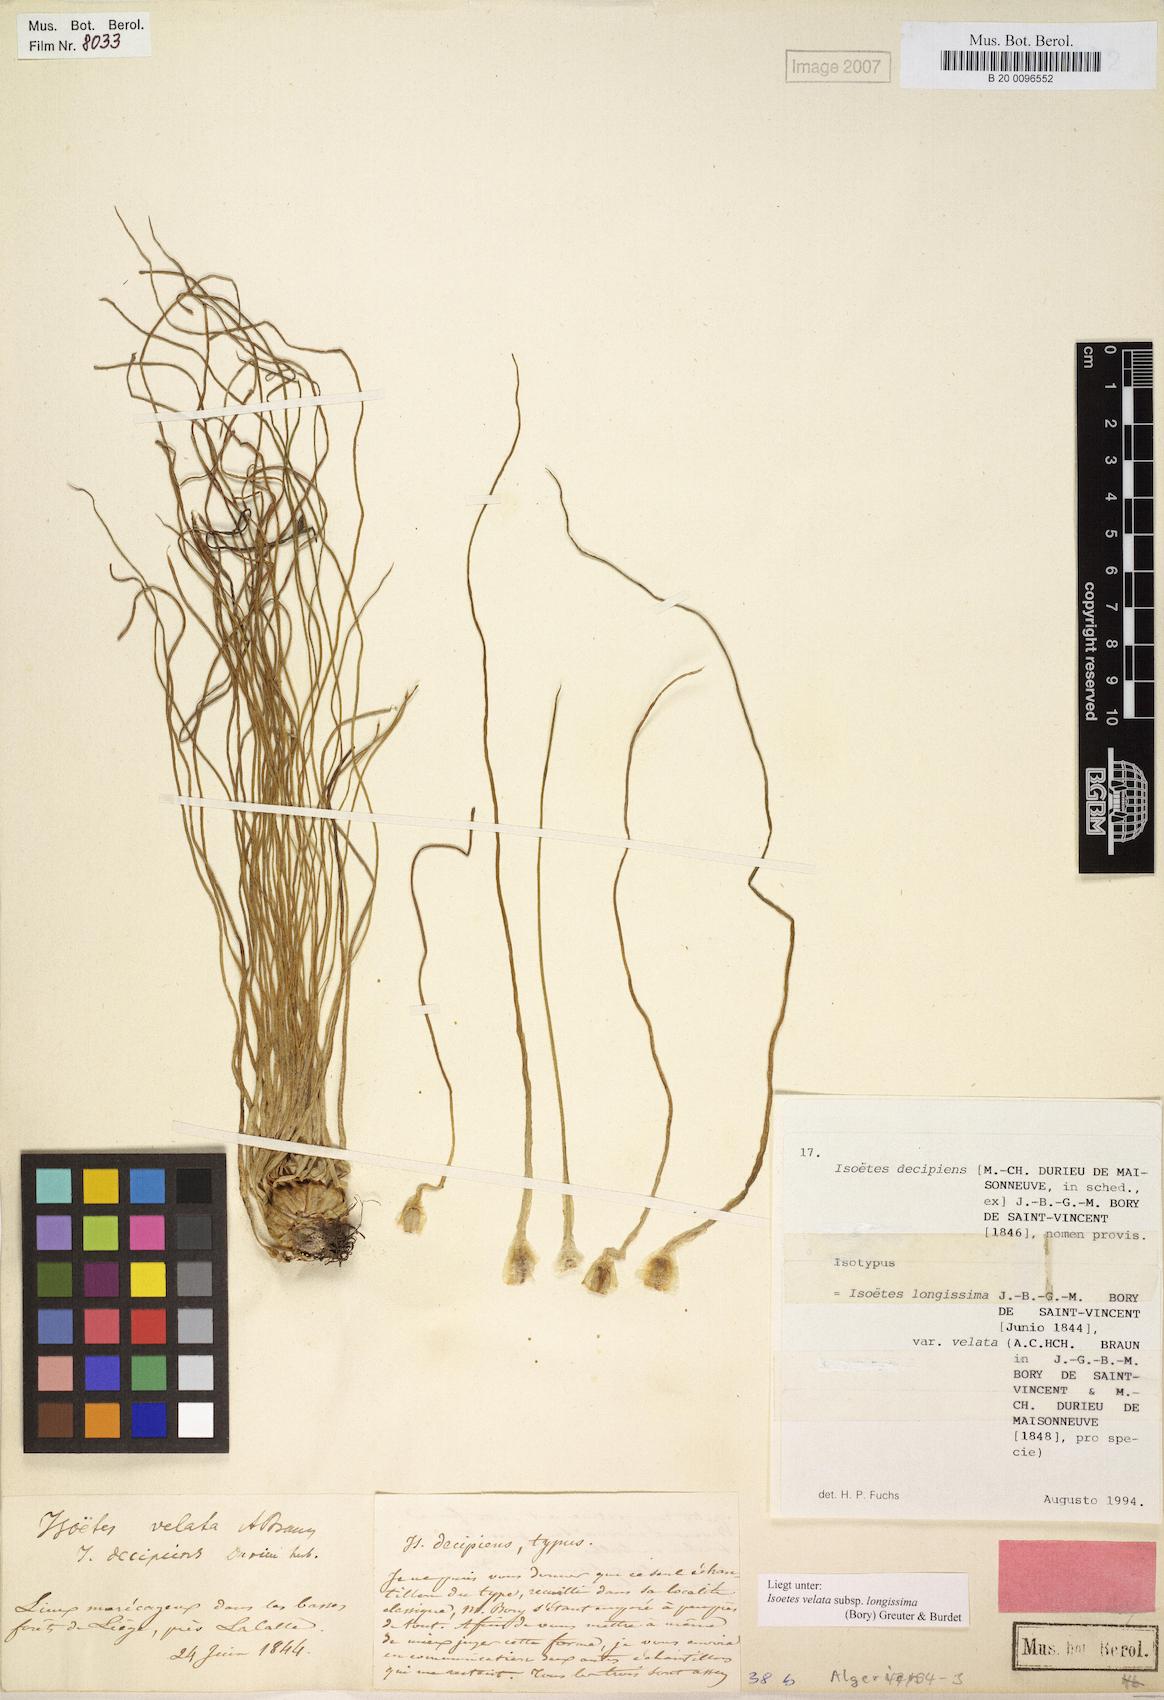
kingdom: Plantae
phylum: Tracheophyta
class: Lycopodiopsida
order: Isoetales
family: Isoetaceae
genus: Isoetes
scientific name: Isoetes longissima
